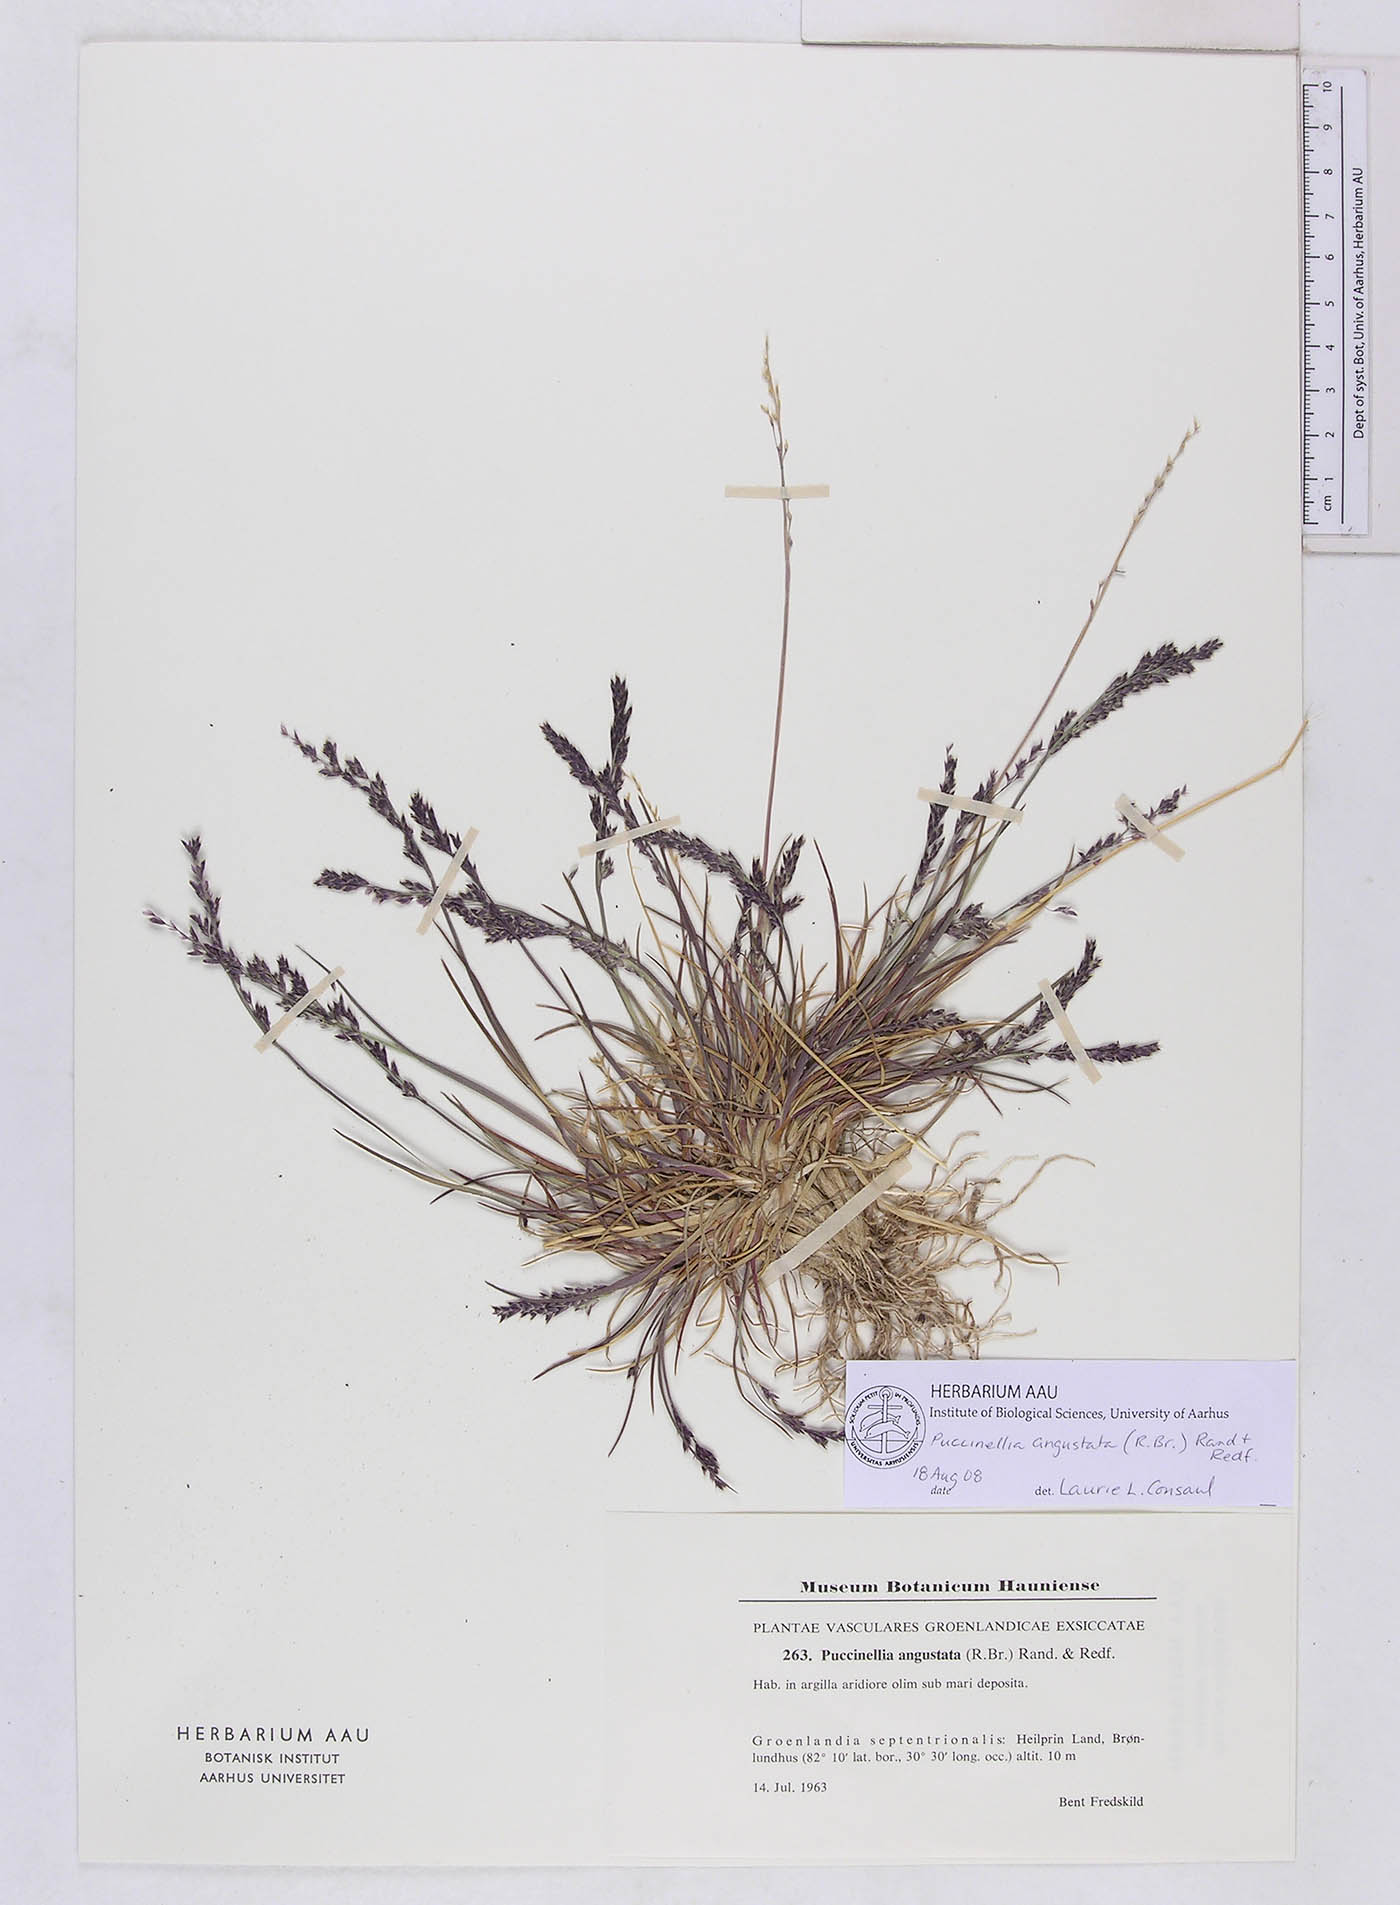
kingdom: Plantae
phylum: Tracheophyta
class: Liliopsida
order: Poales
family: Poaceae
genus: Puccinellia
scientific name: Puccinellia angustata
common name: Narrow alkaligrass
